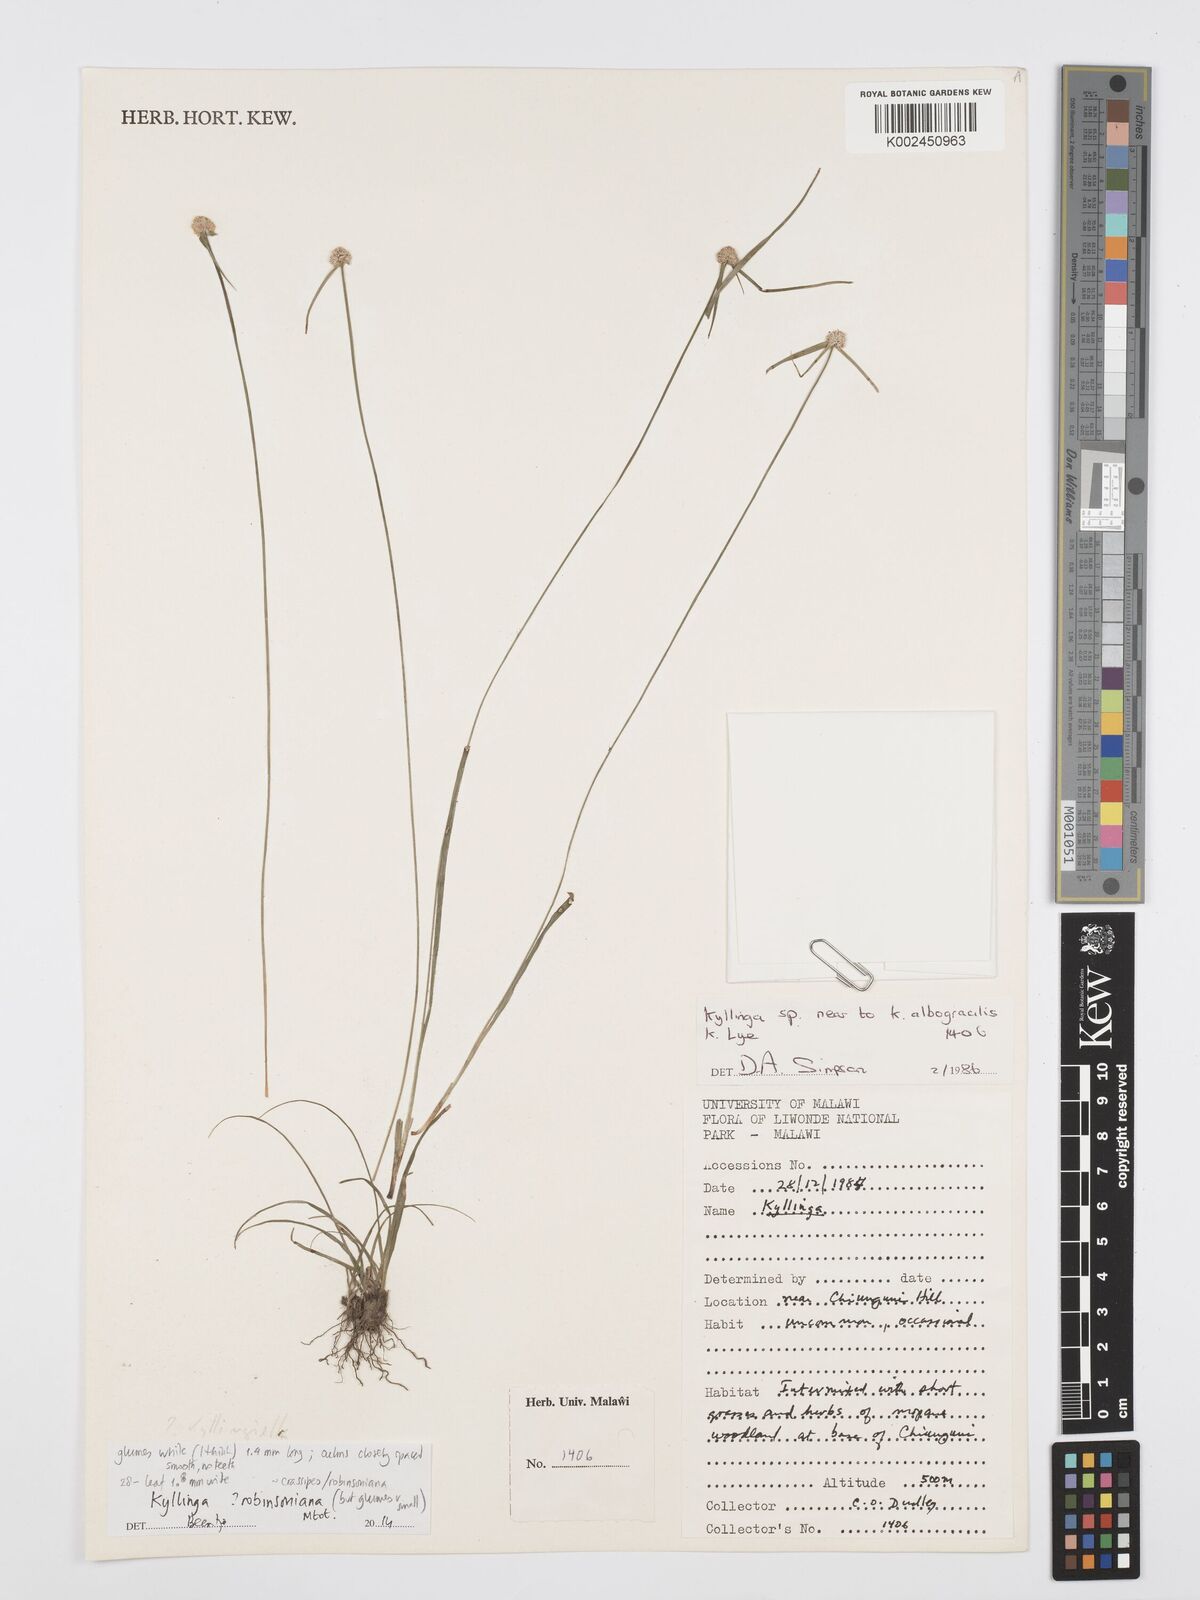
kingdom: Plantae
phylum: Tracheophyta
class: Liliopsida
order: Poales
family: Cyperaceae
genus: Cyperus
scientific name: Cyperus robinsonianus
